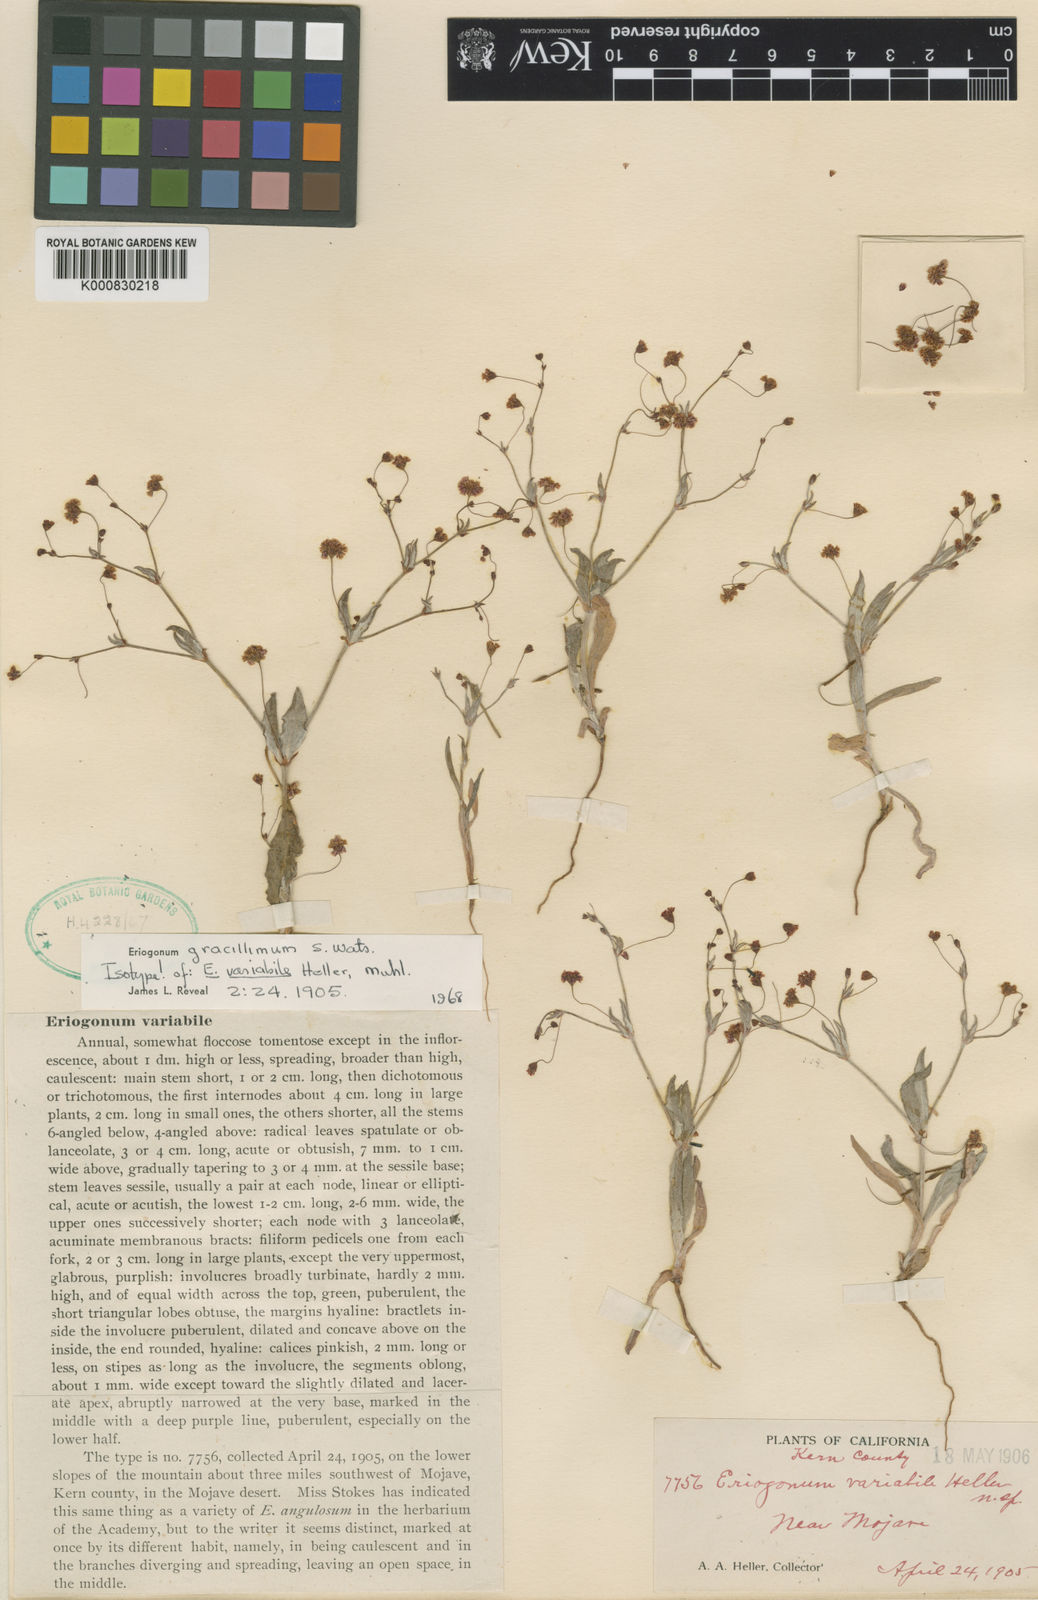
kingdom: Plantae
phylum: Tracheophyta
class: Magnoliopsida
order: Caryophyllales
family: Polygonaceae
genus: Eriogonum
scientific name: Eriogonum gracillimum
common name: Rose-and-white wild buckwheat
